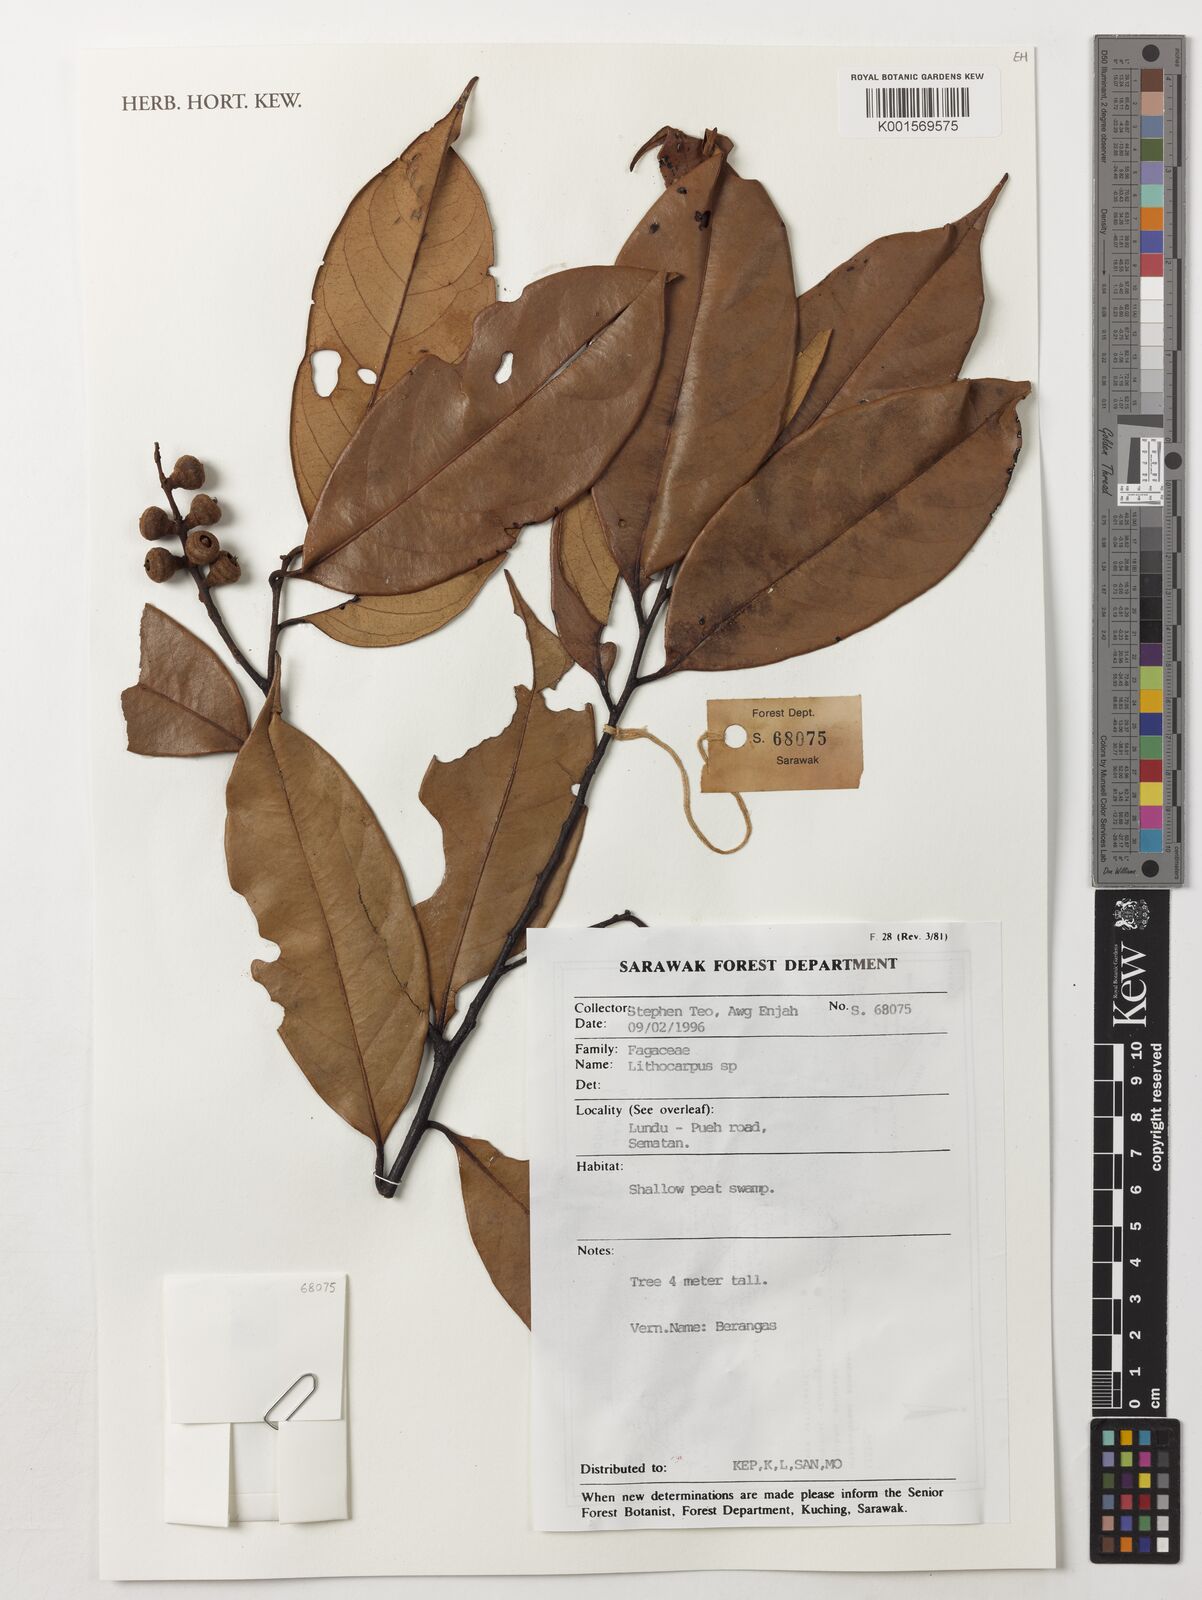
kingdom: Plantae
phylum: Tracheophyta
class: Magnoliopsida
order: Fagales
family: Fagaceae
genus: Lithocarpus
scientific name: Lithocarpus
